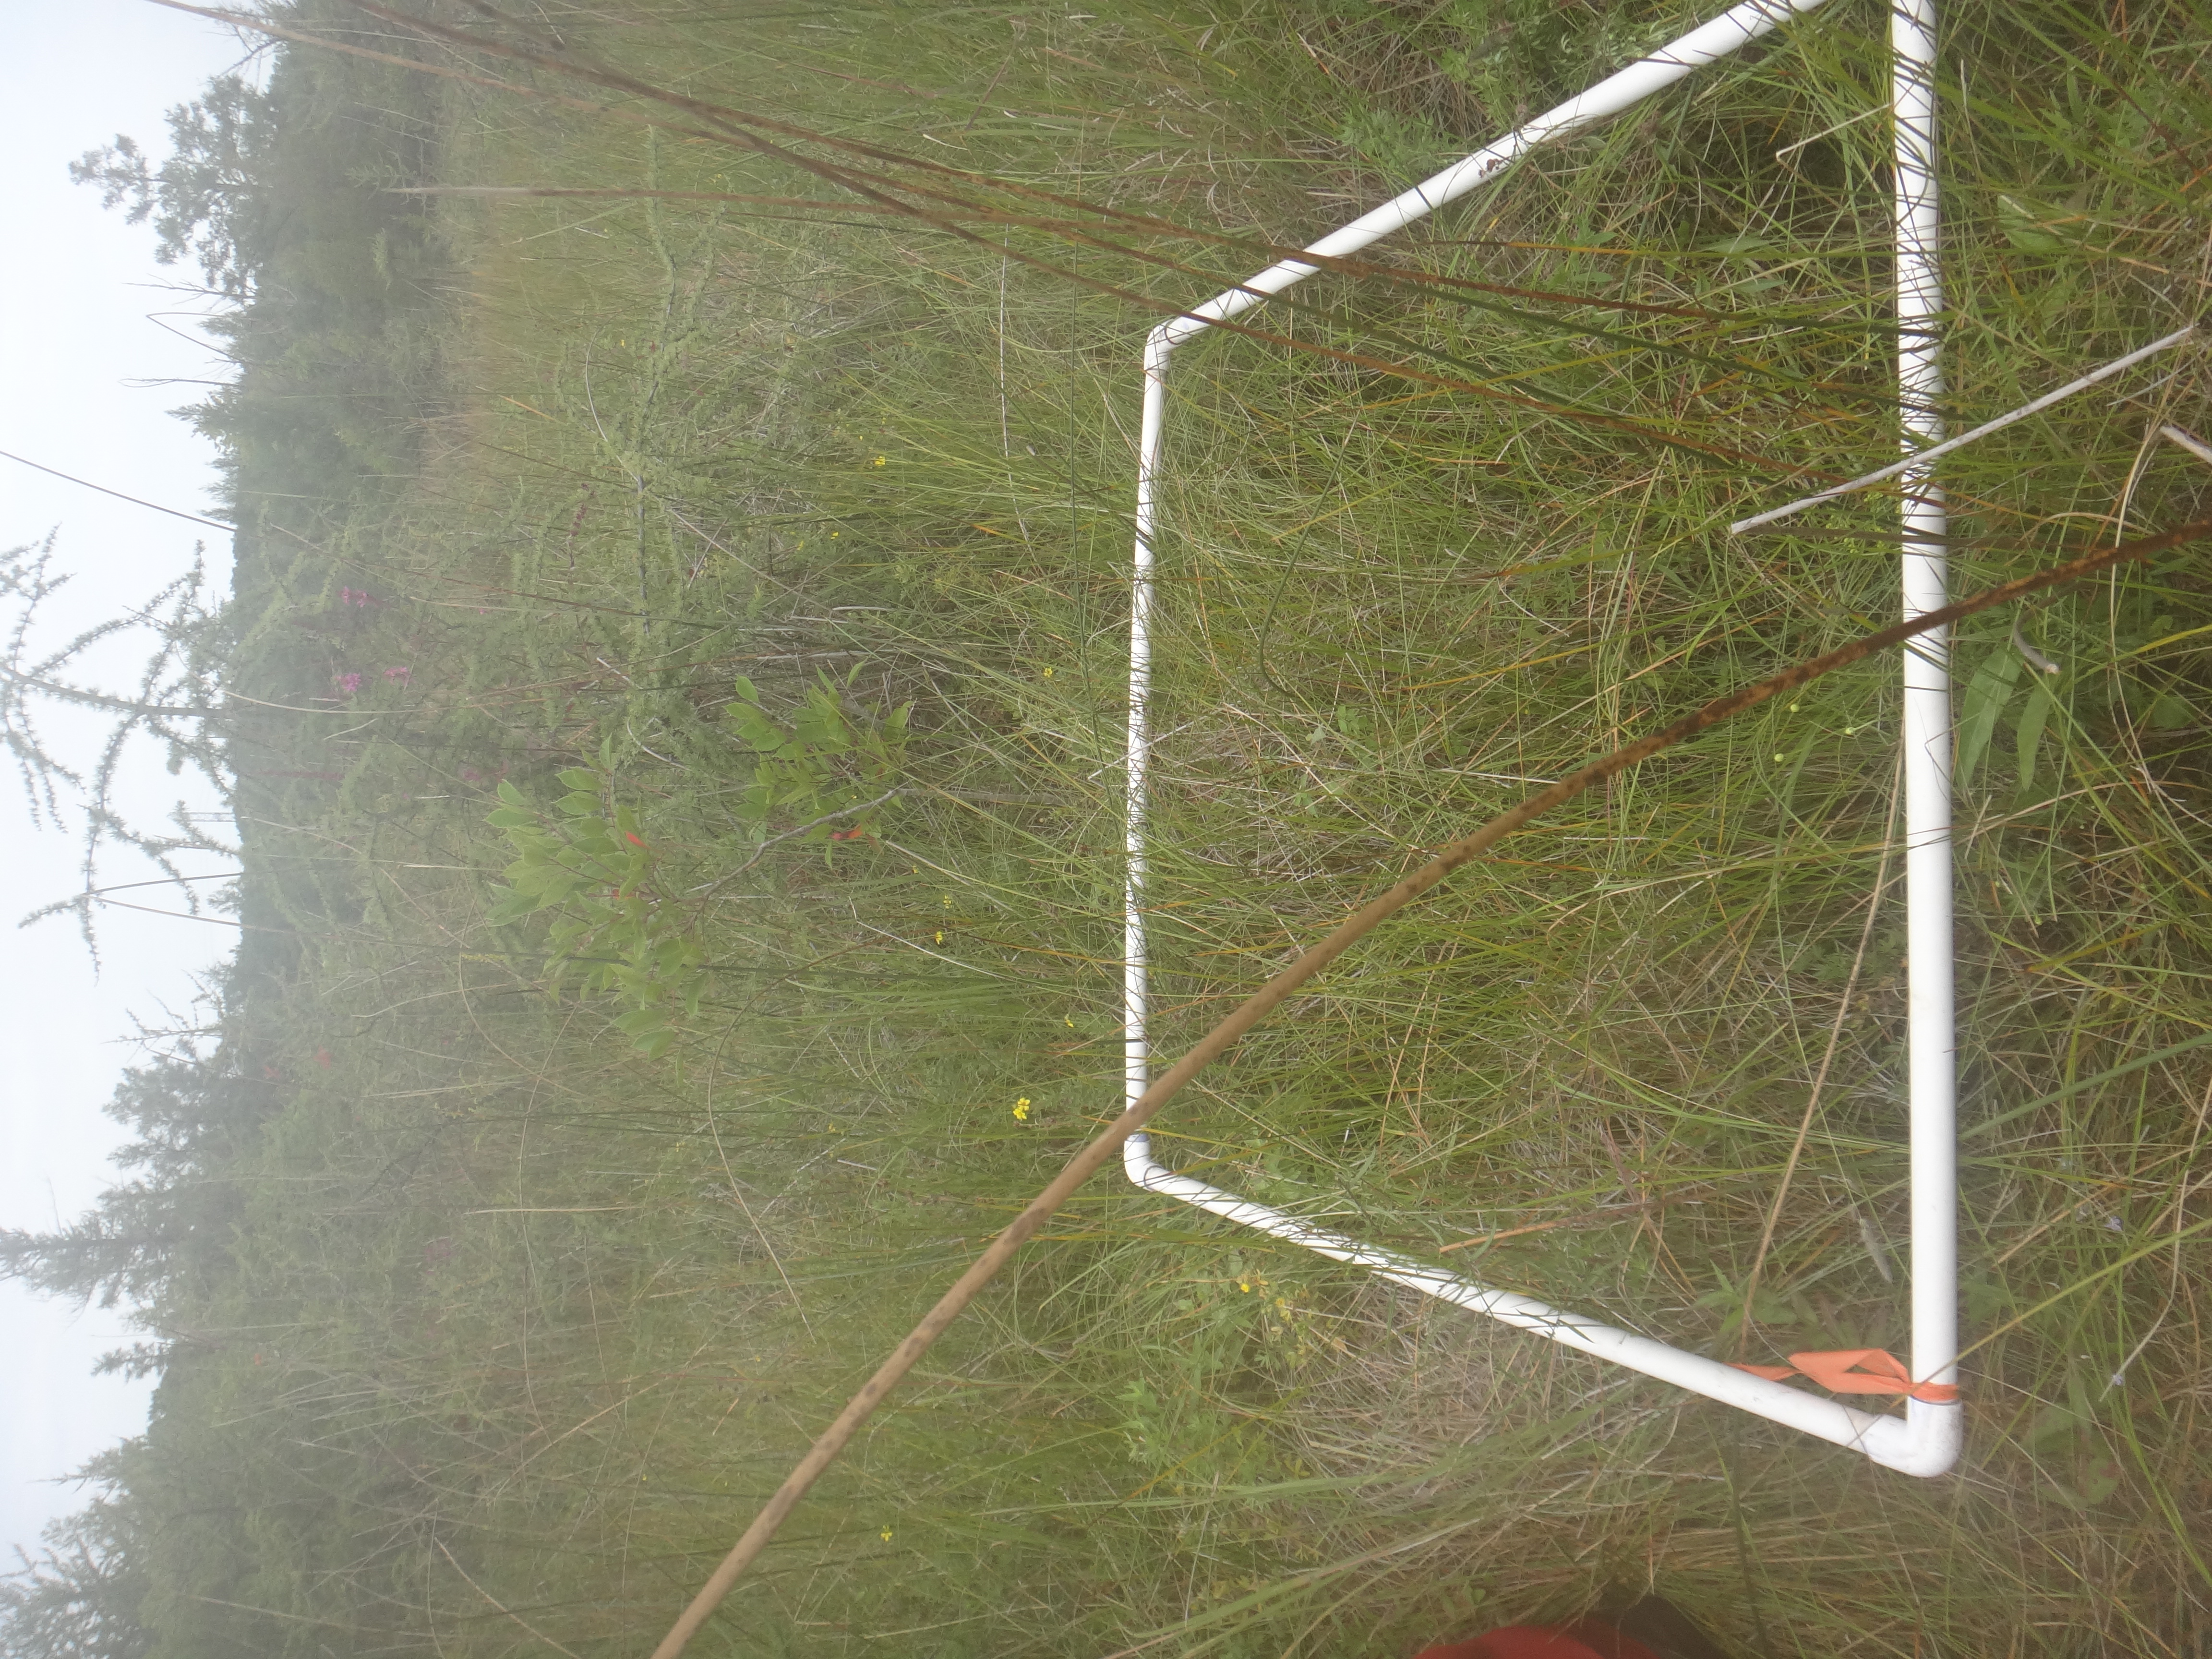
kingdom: Plantae
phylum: Tracheophyta
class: Magnoliopsida
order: Asterales
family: Asteraceae
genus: Bidens
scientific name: Bidens trichosperma
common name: Crowned beggarticks
